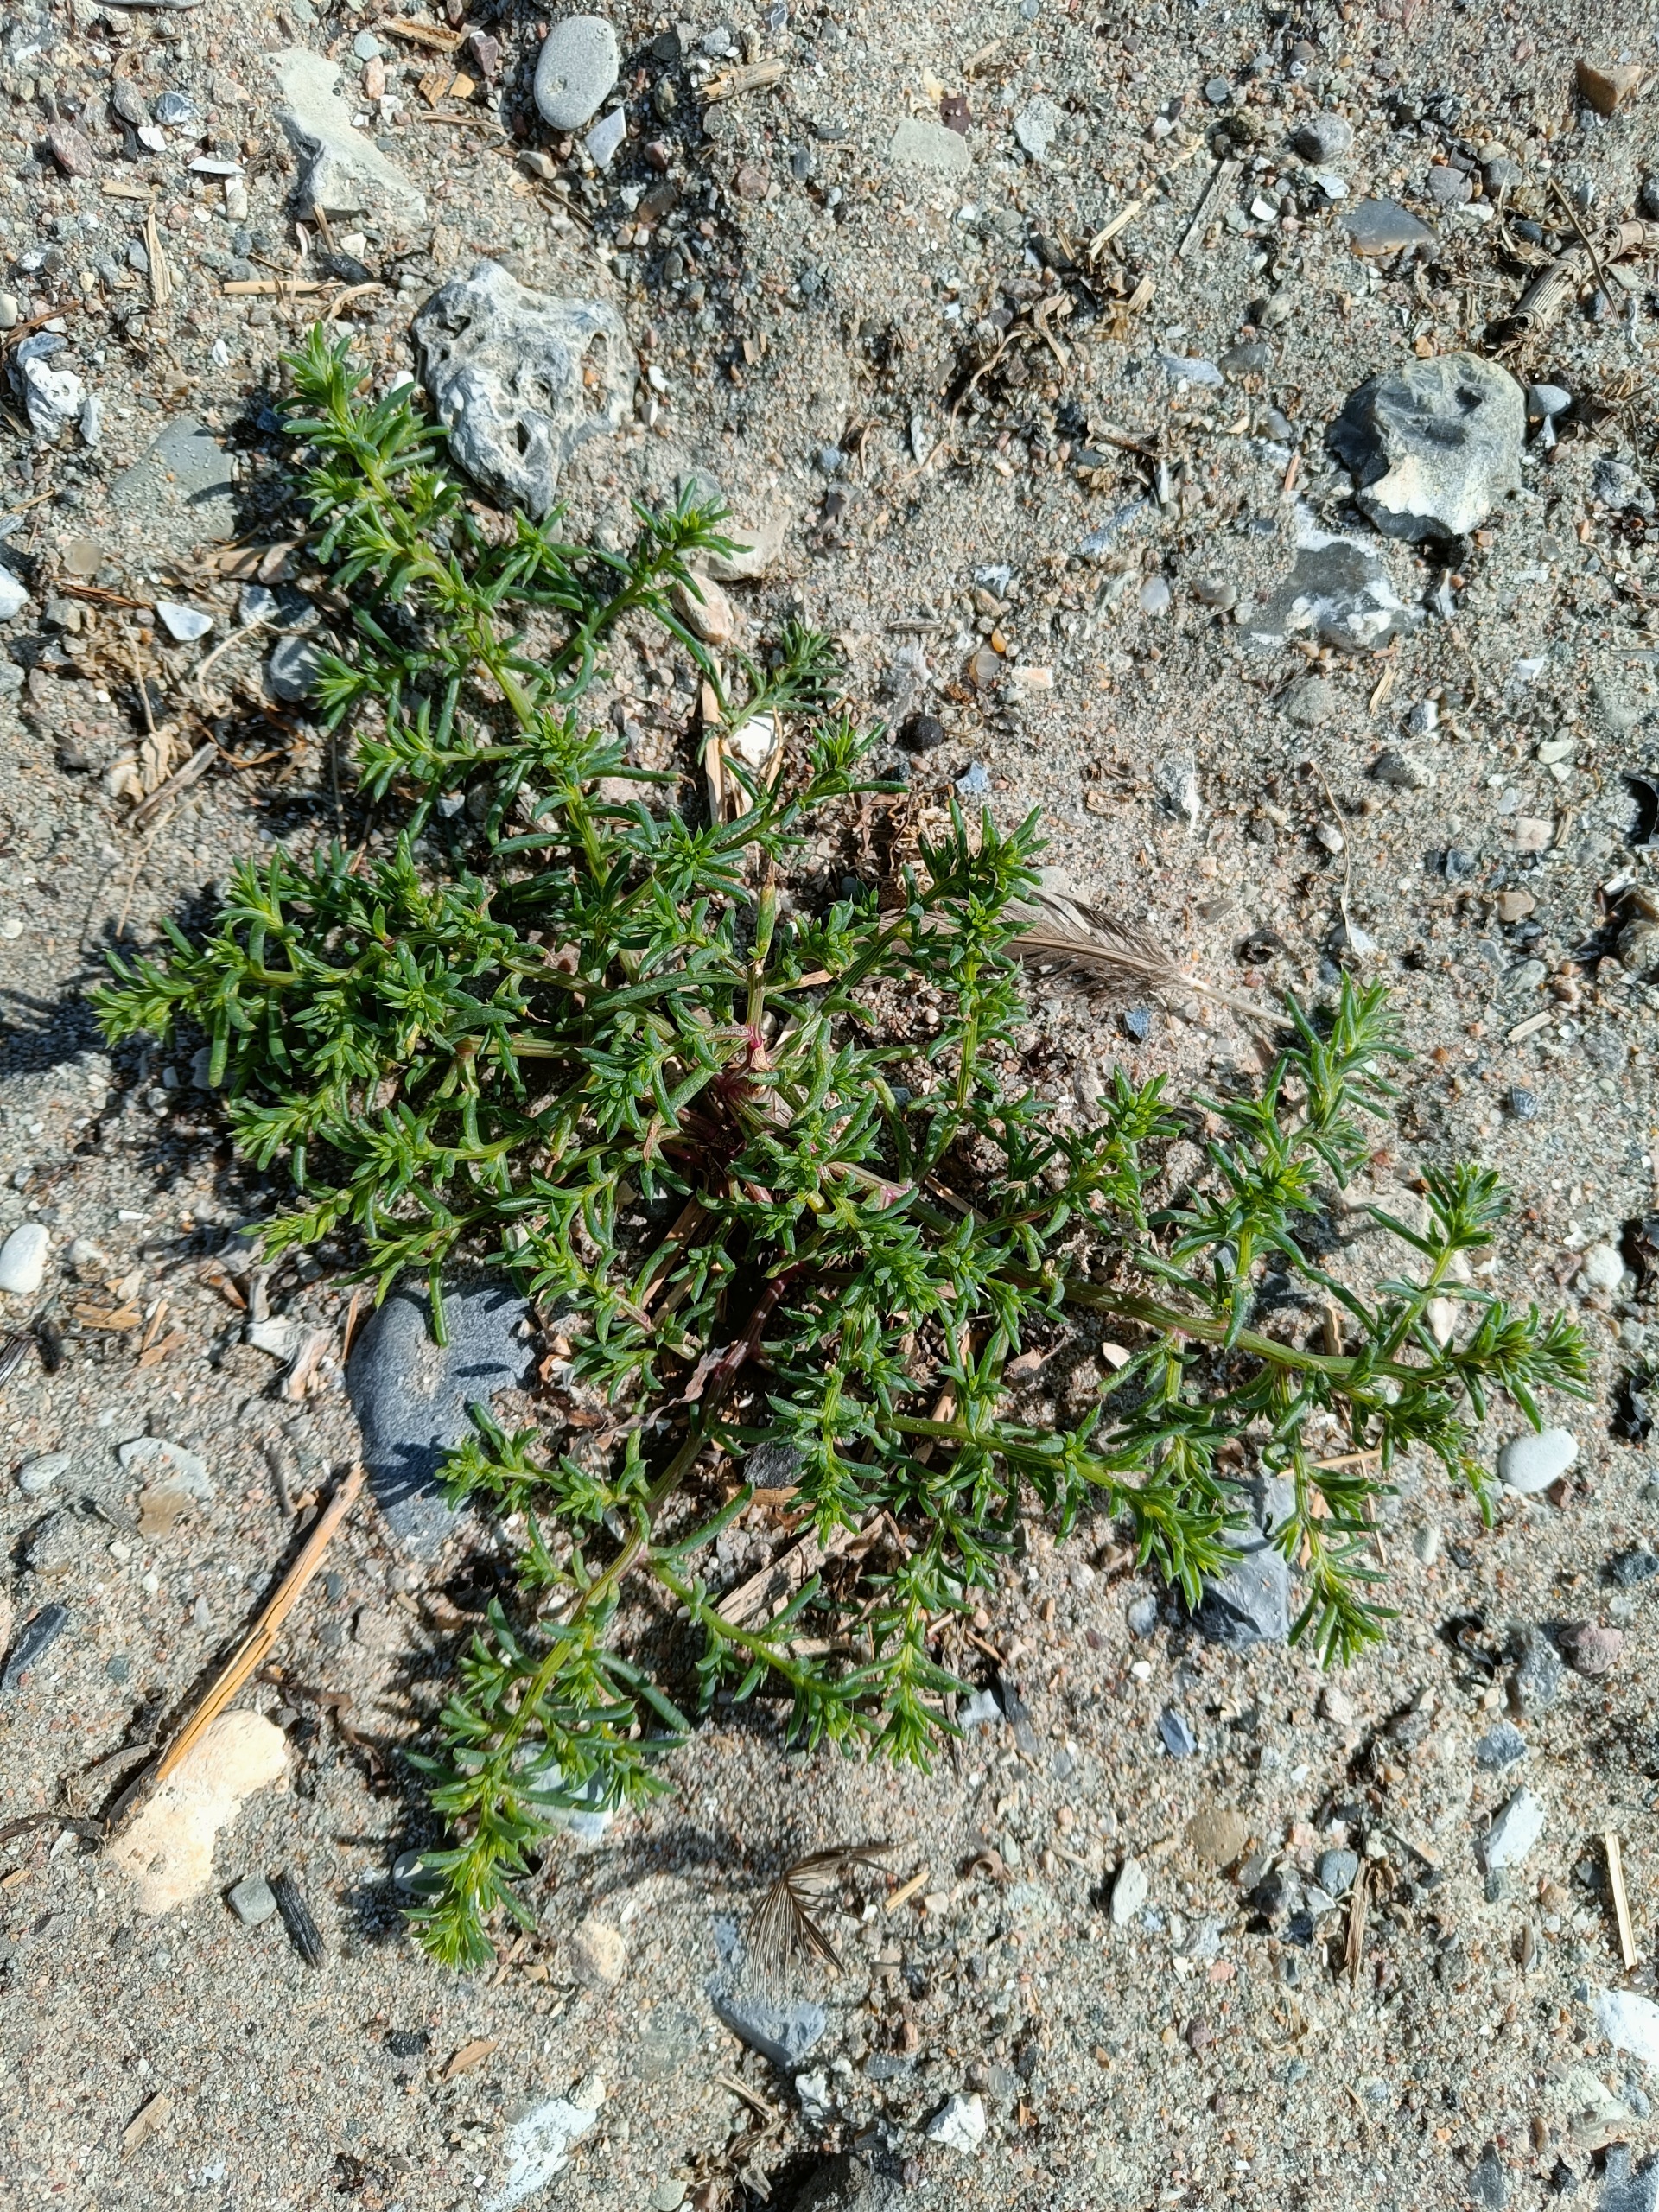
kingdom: Plantae
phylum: Tracheophyta
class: Magnoliopsida
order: Caryophyllales
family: Amaranthaceae
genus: Salsola
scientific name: Salsola kali
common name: Sodaurt
